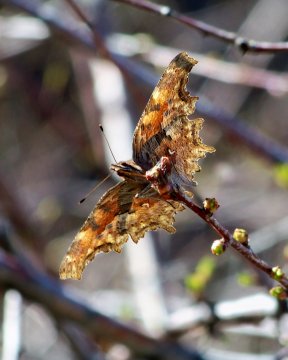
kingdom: Animalia
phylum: Arthropoda
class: Insecta
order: Lepidoptera
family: Nymphalidae
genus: Polygonia
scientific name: Polygonia gracilis
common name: Hoary Comma
